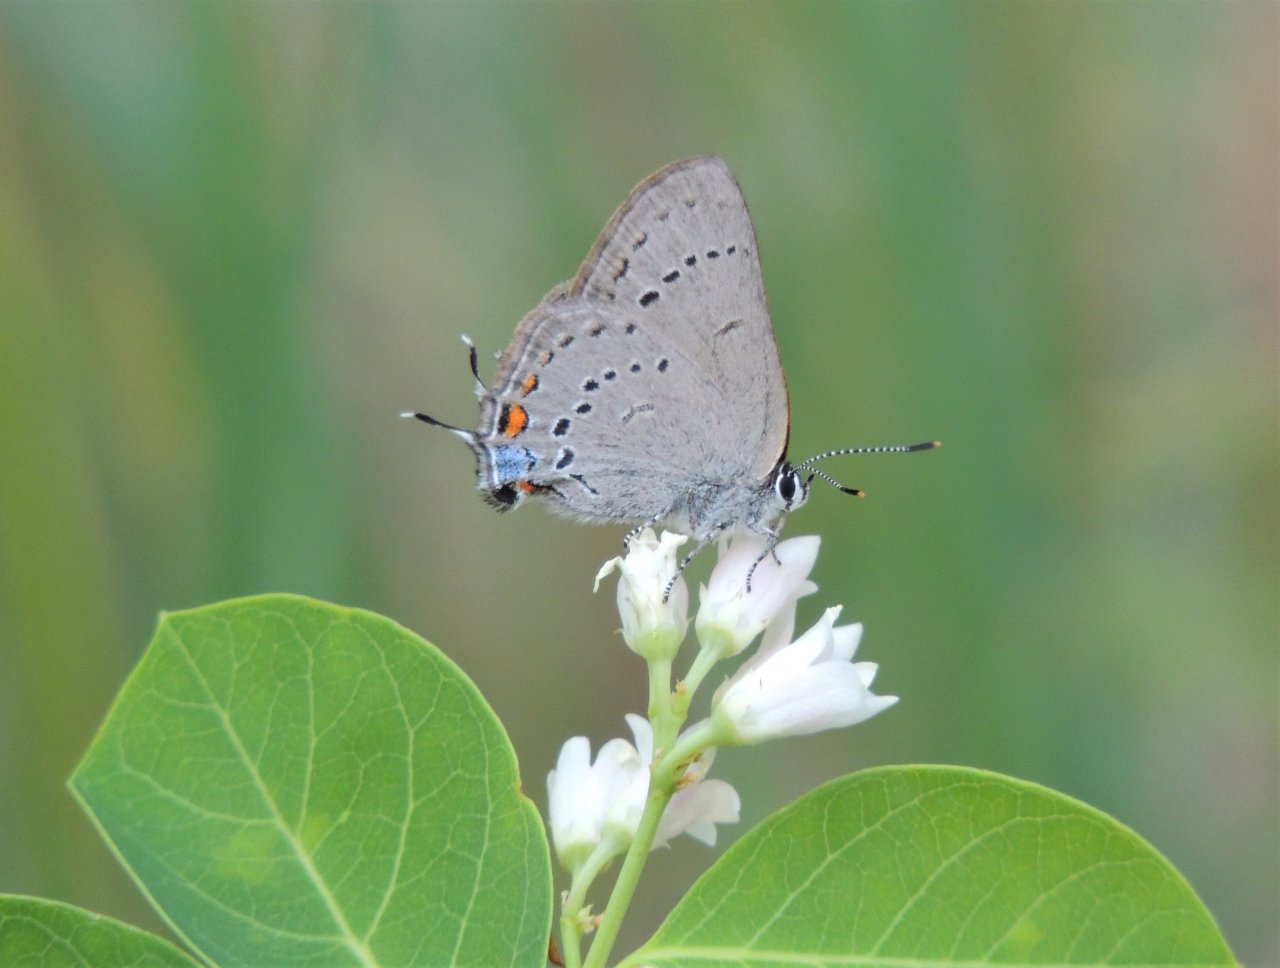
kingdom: Animalia
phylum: Arthropoda
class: Insecta
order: Lepidoptera
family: Lycaenidae
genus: Strymon
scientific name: Strymon sylvinus
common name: Sylvan Hairstreak
